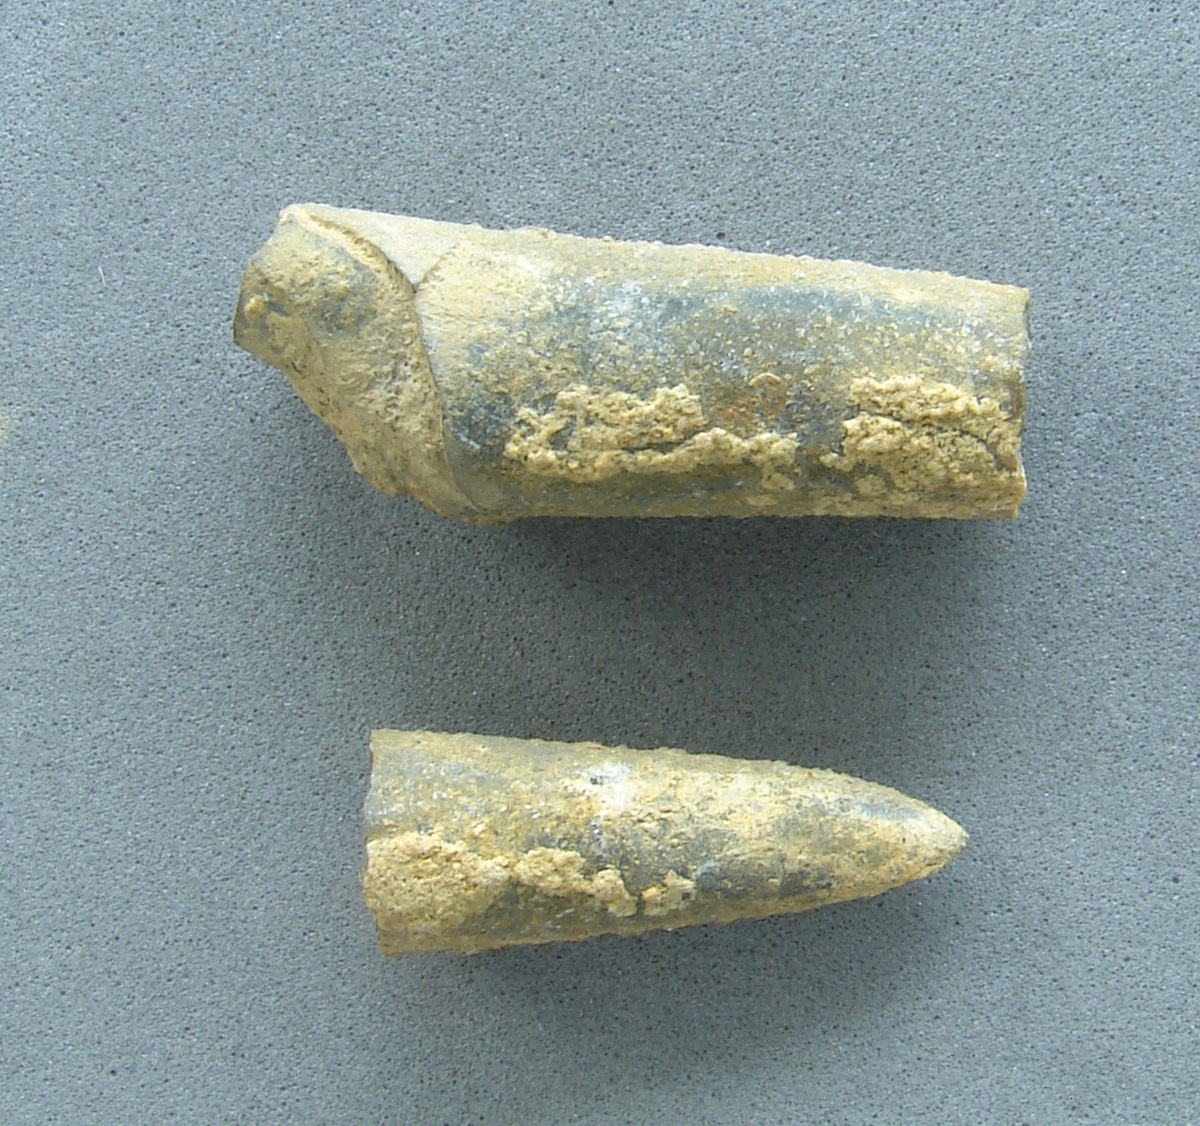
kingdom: Animalia
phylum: Mollusca
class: Cephalopoda
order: Belemnitida
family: Megateuthididae
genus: Dactyloteuthis
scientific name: Dactyloteuthis
